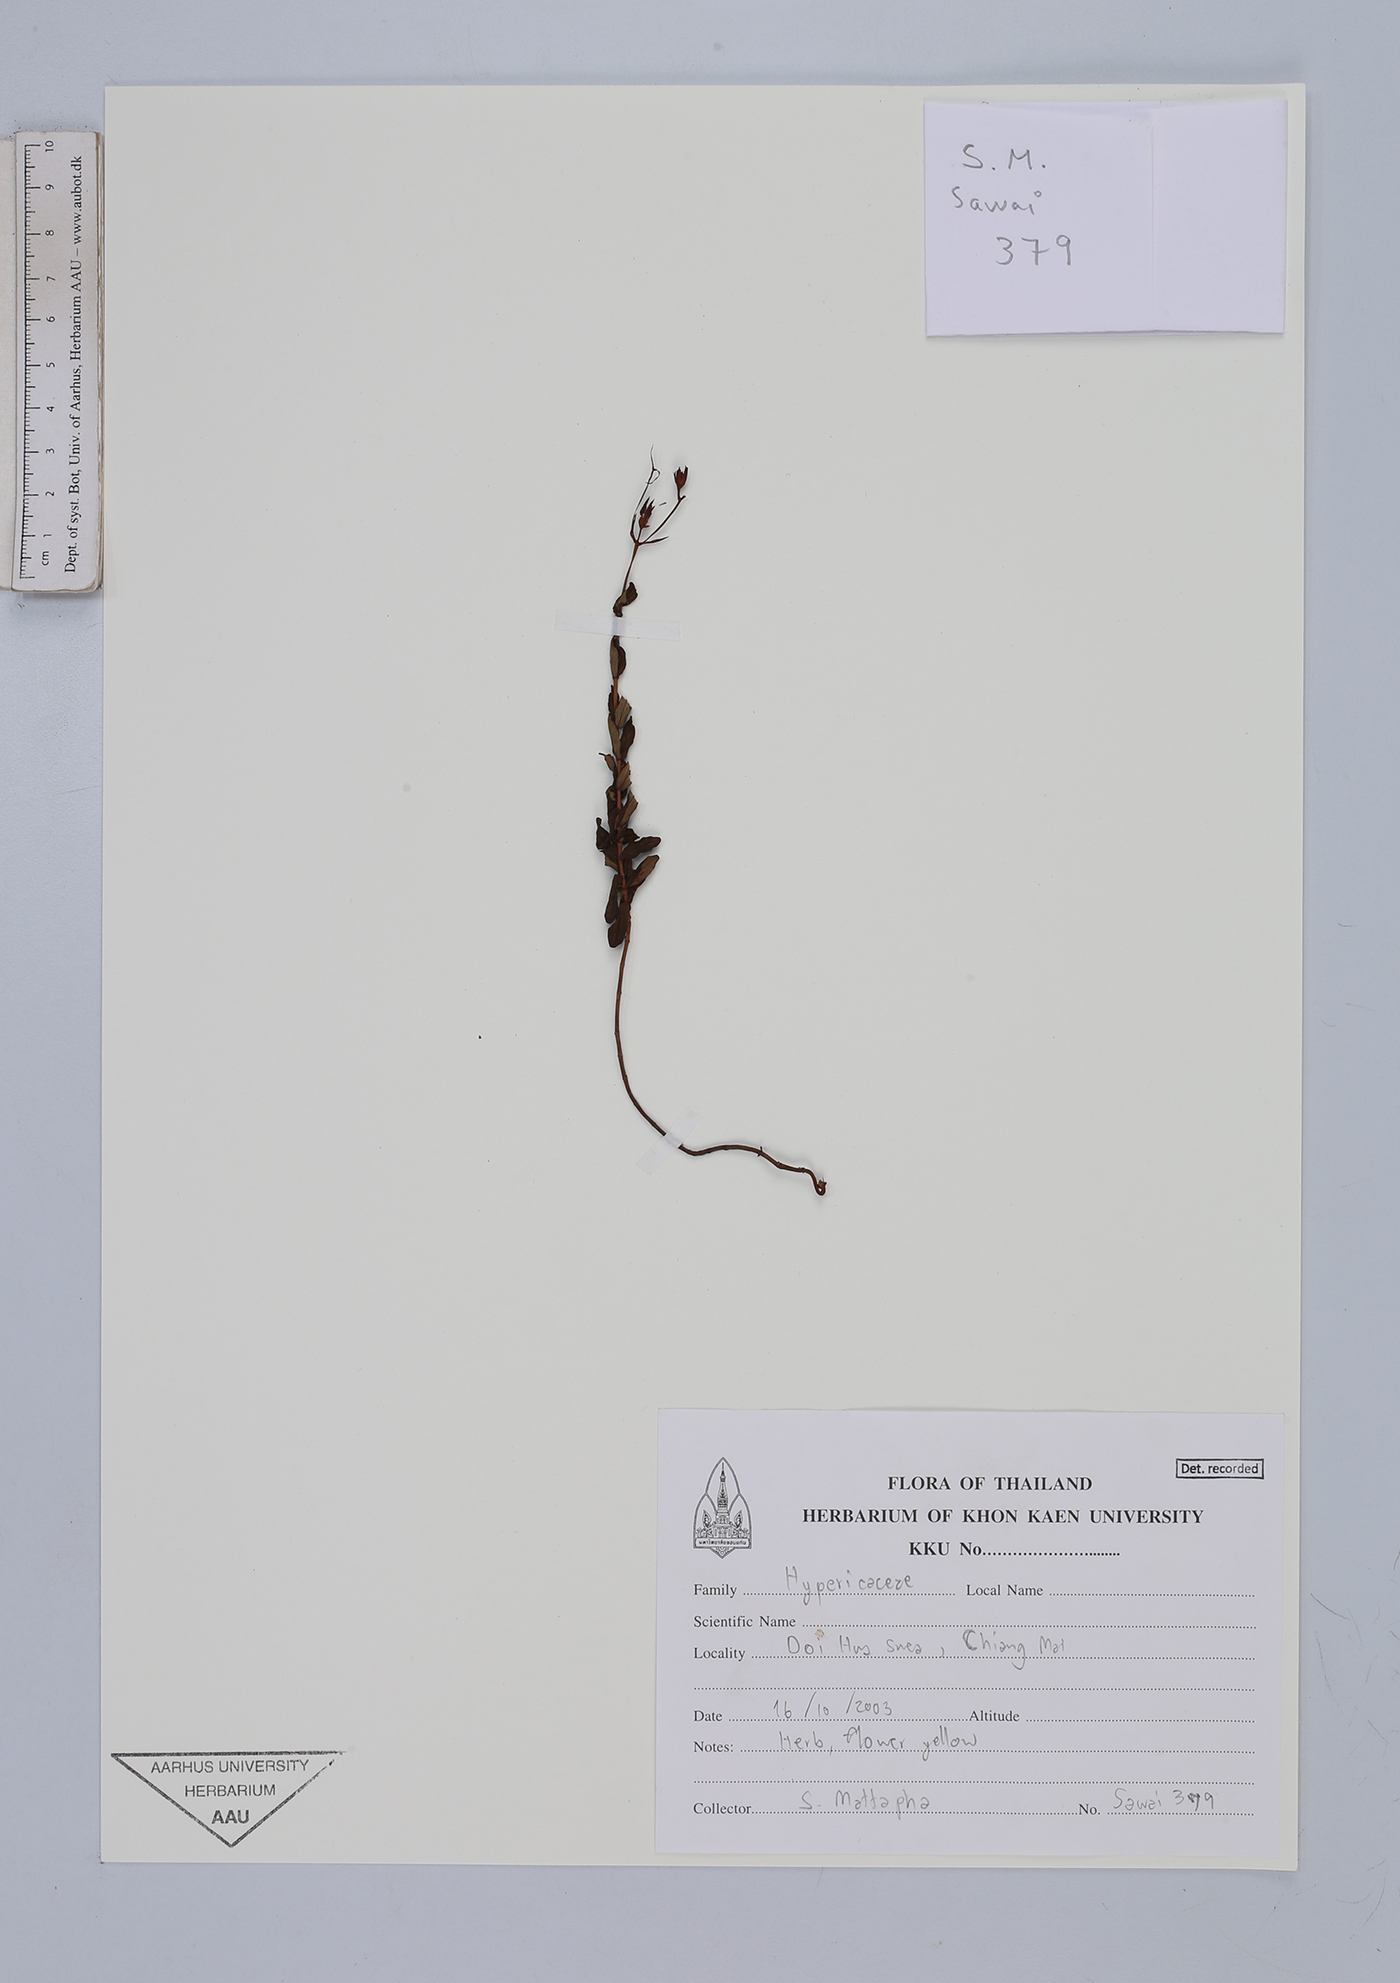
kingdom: Plantae
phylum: Tracheophyta
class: Magnoliopsida
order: Malpighiales
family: Clusiaceae
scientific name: Clusiaceae
